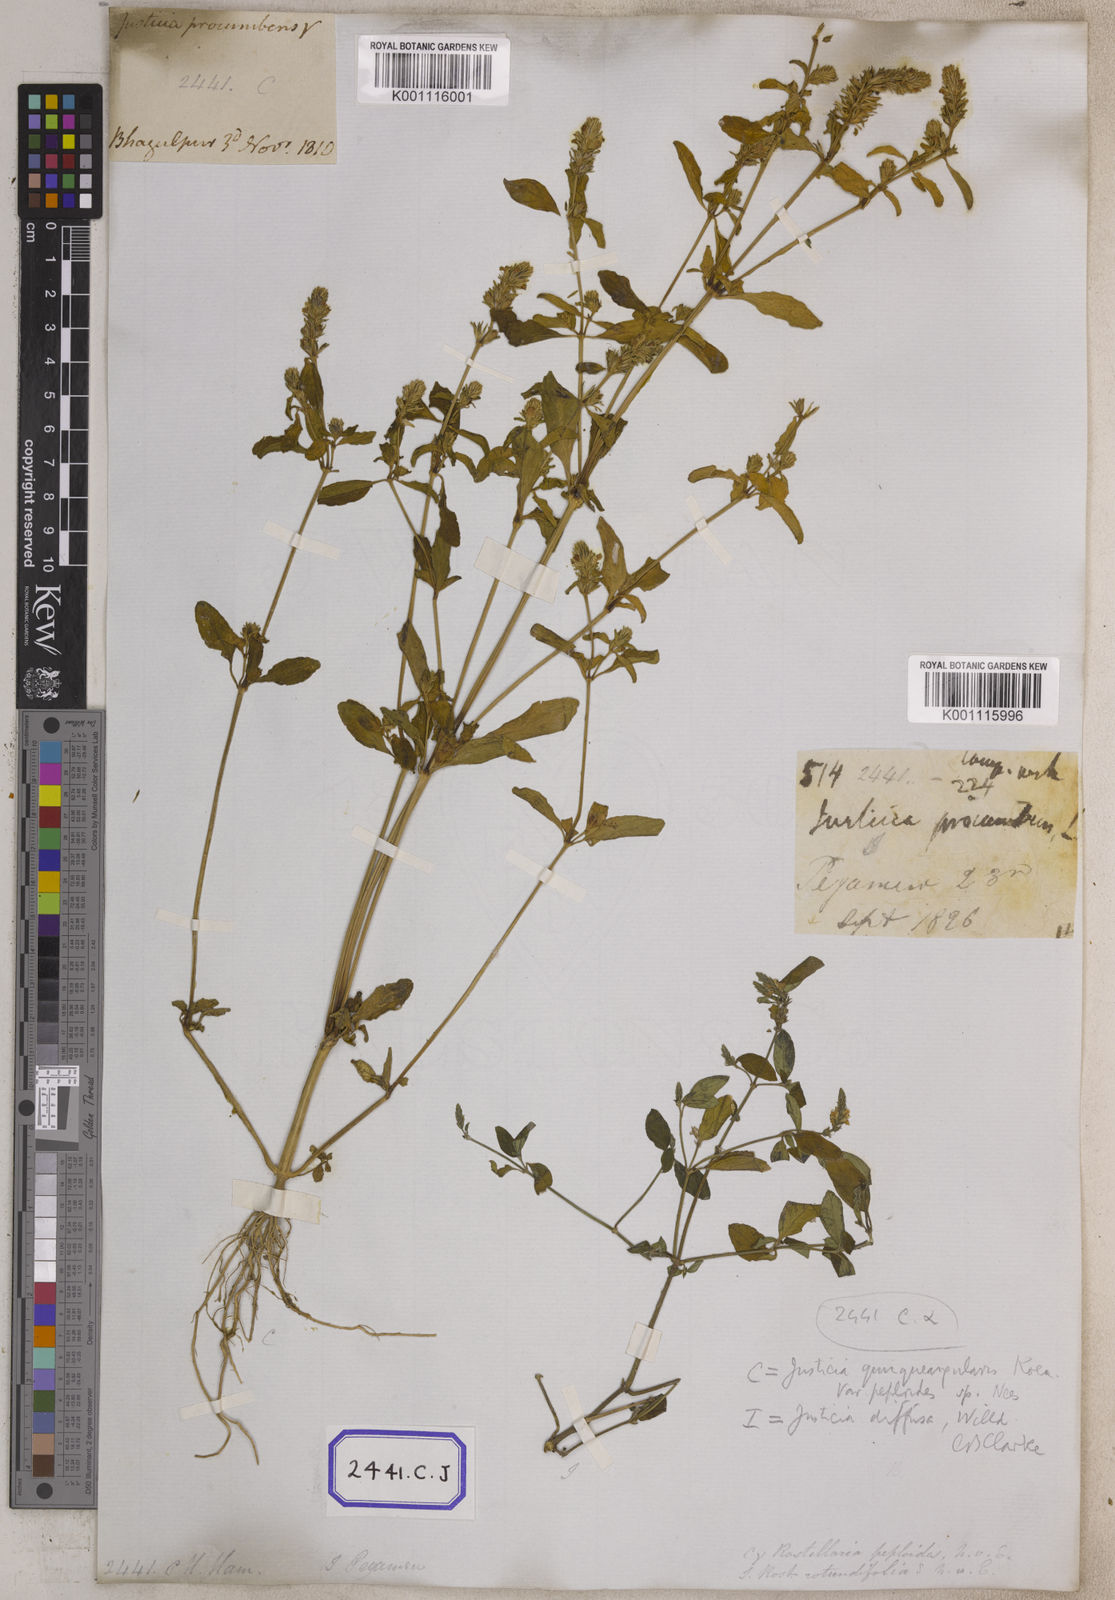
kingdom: Plantae
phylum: Tracheophyta
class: Magnoliopsida
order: Lamiales
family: Acanthaceae
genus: Rostellularia
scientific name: Rostellularia procumbens
